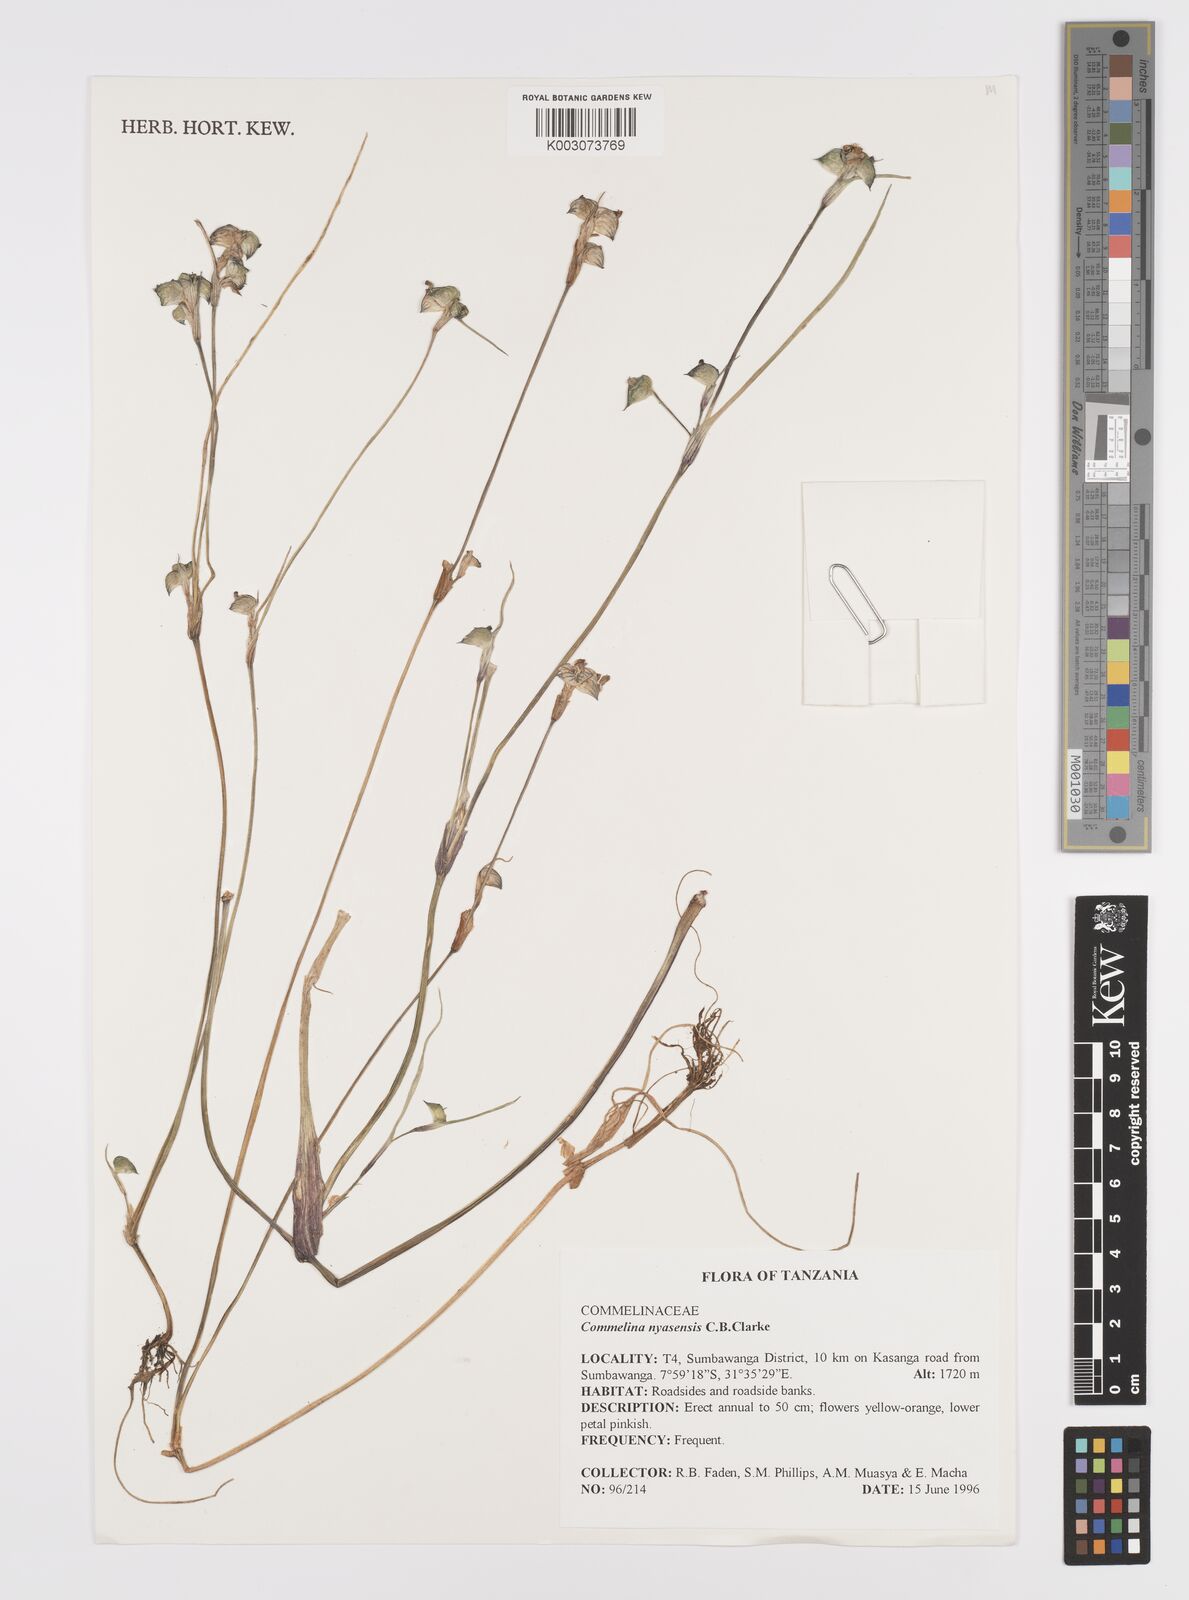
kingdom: Plantae
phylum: Tracheophyta
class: Liliopsida
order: Commelinales
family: Commelinaceae
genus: Commelina
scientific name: Commelina nyasensis
